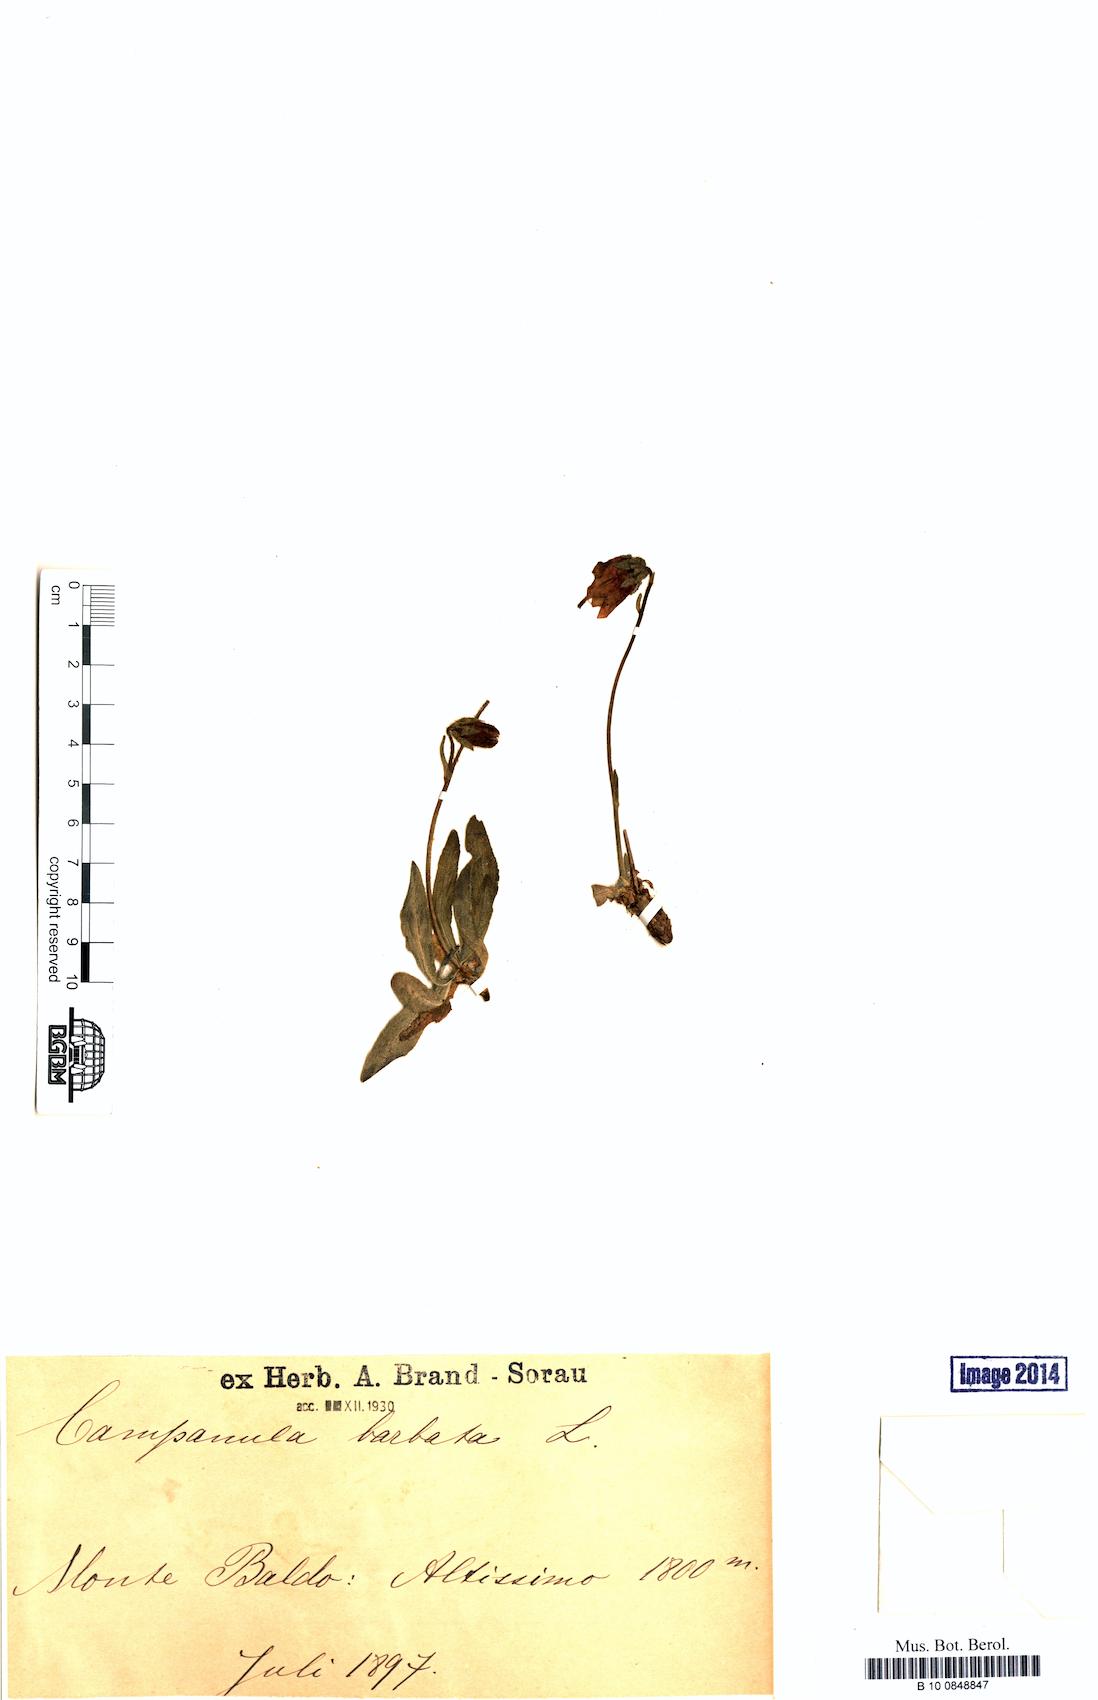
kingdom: Plantae
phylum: Tracheophyta
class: Magnoliopsida
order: Asterales
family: Campanulaceae
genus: Campanula
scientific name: Campanula barbata
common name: Bearded bellflower
